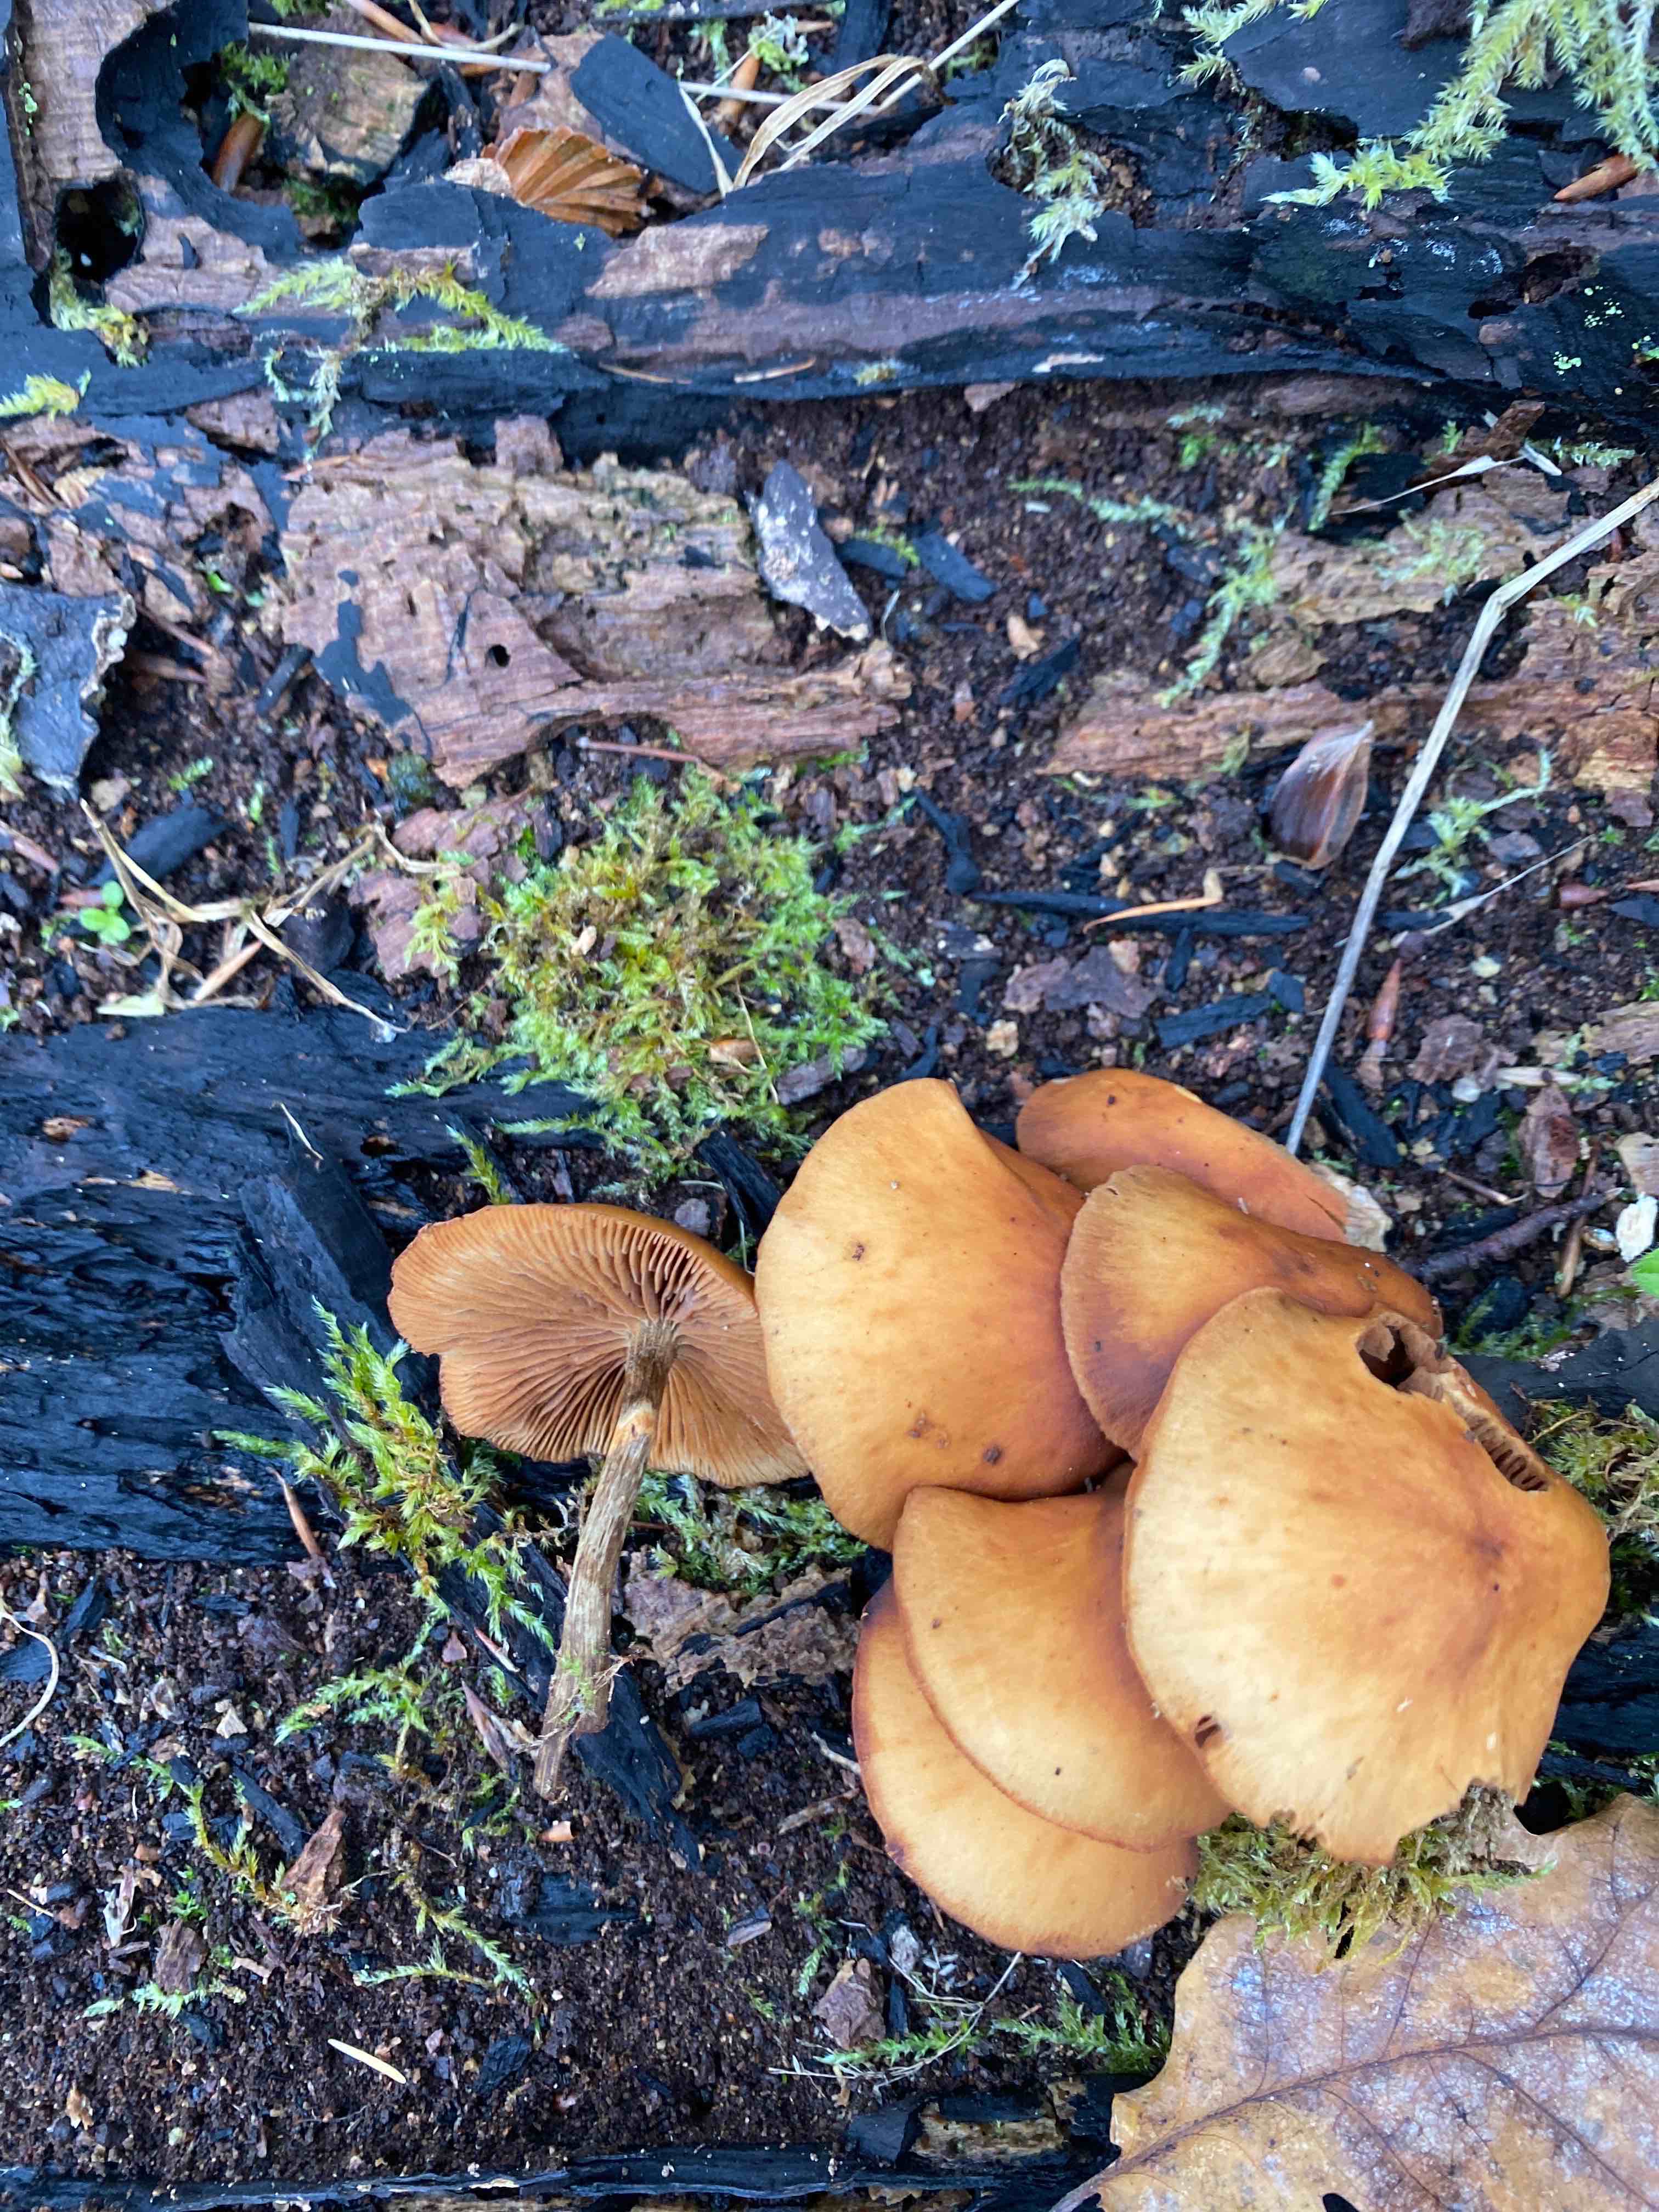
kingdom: Fungi
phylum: Basidiomycota
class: Agaricomycetes
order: Agaricales
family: Hymenogastraceae
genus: Galerina
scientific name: Galerina marginata
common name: randbæltet hjelmhat
